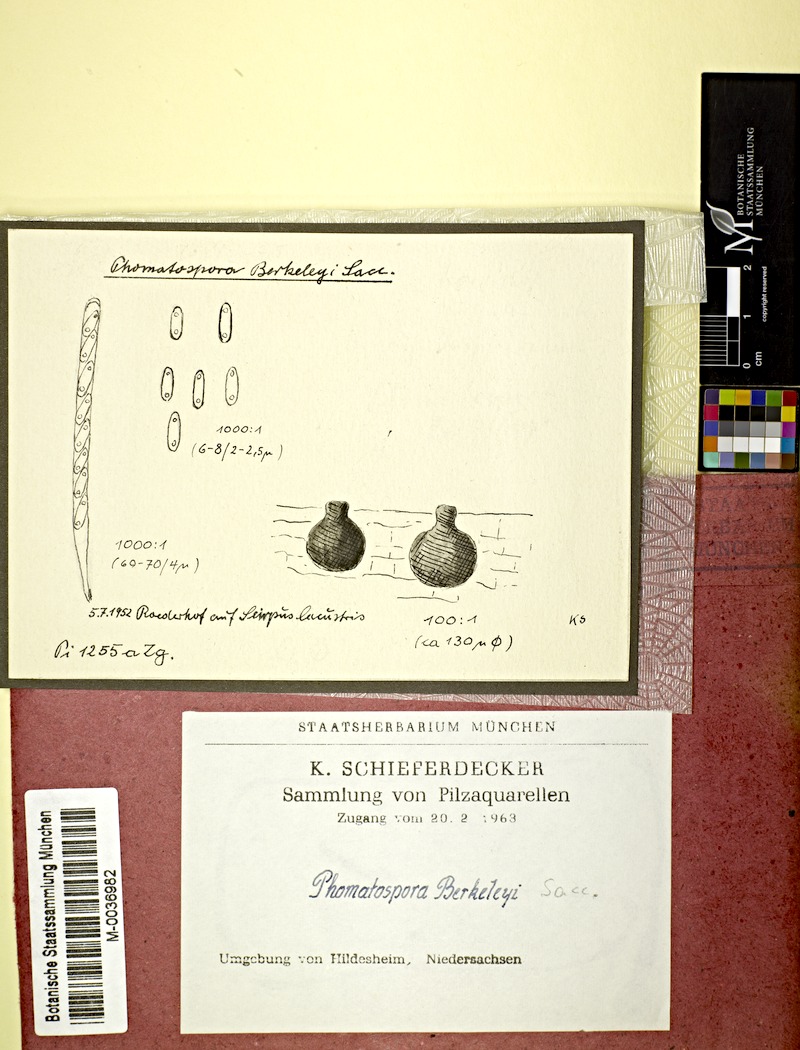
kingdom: Fungi
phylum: Ascomycota
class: Sordariomycetes
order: Phomatosporales
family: Phomatosporaceae
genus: Phomatospora
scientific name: Phomatospora berkeleyi
